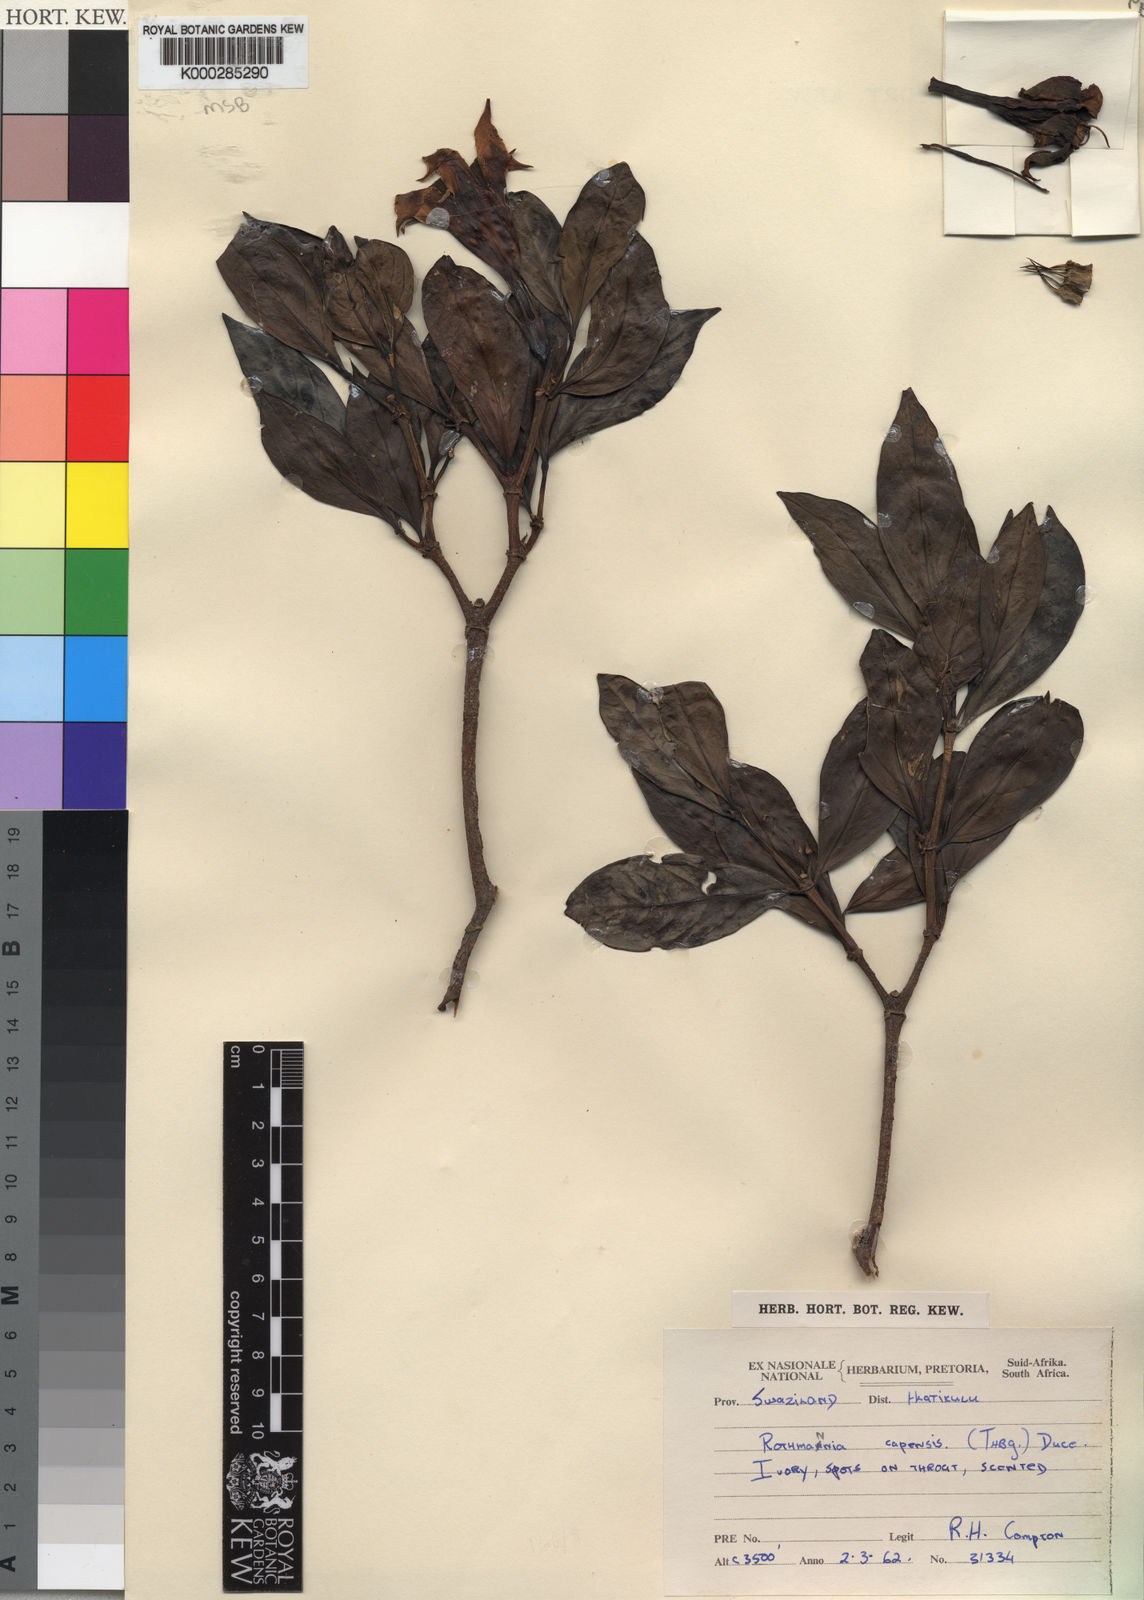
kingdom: Plantae
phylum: Tracheophyta
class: Magnoliopsida
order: Gentianales
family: Rubiaceae
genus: Rothmannia
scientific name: Rothmannia capensis
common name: Cape gardenia
